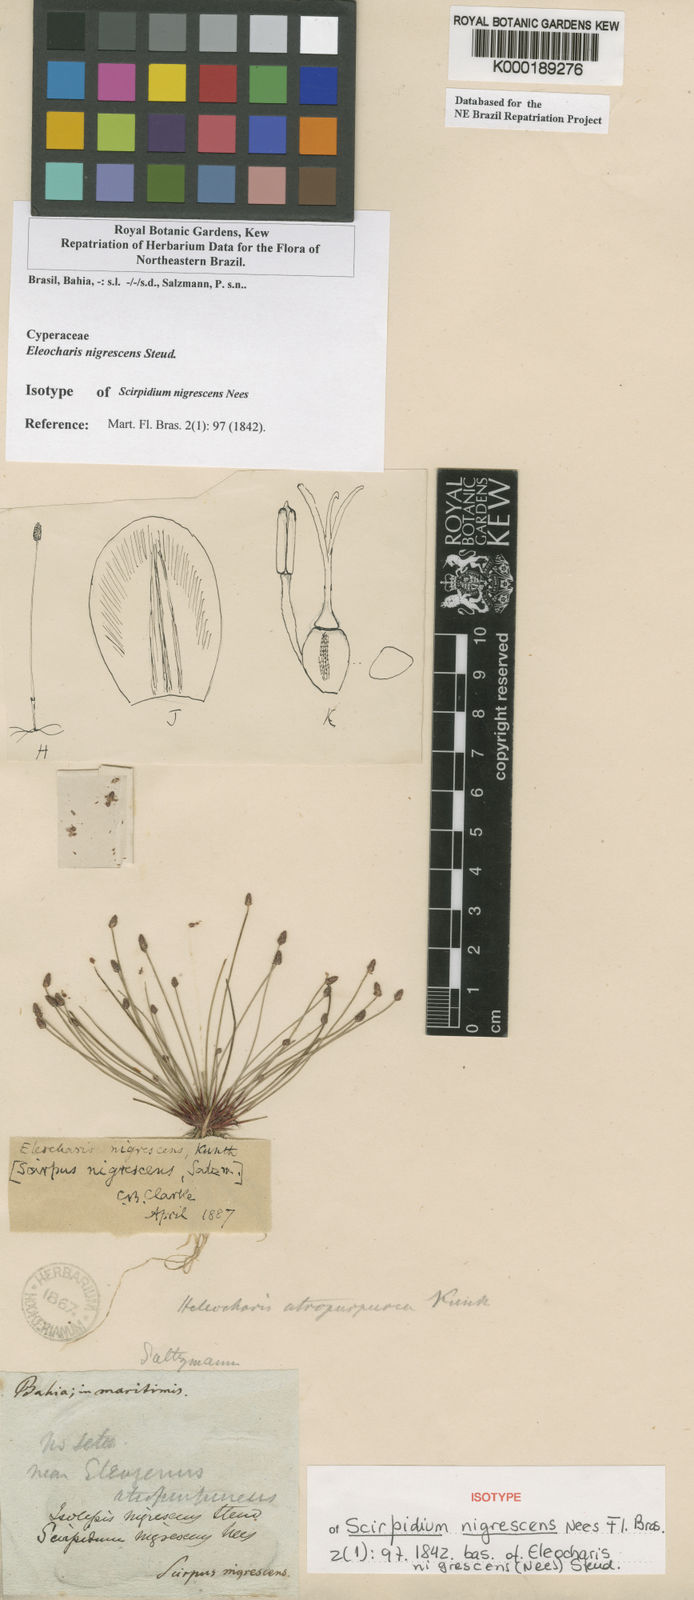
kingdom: Plantae
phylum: Tracheophyta
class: Liliopsida
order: Poales
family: Cyperaceae
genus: Eleocharis
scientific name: Eleocharis
